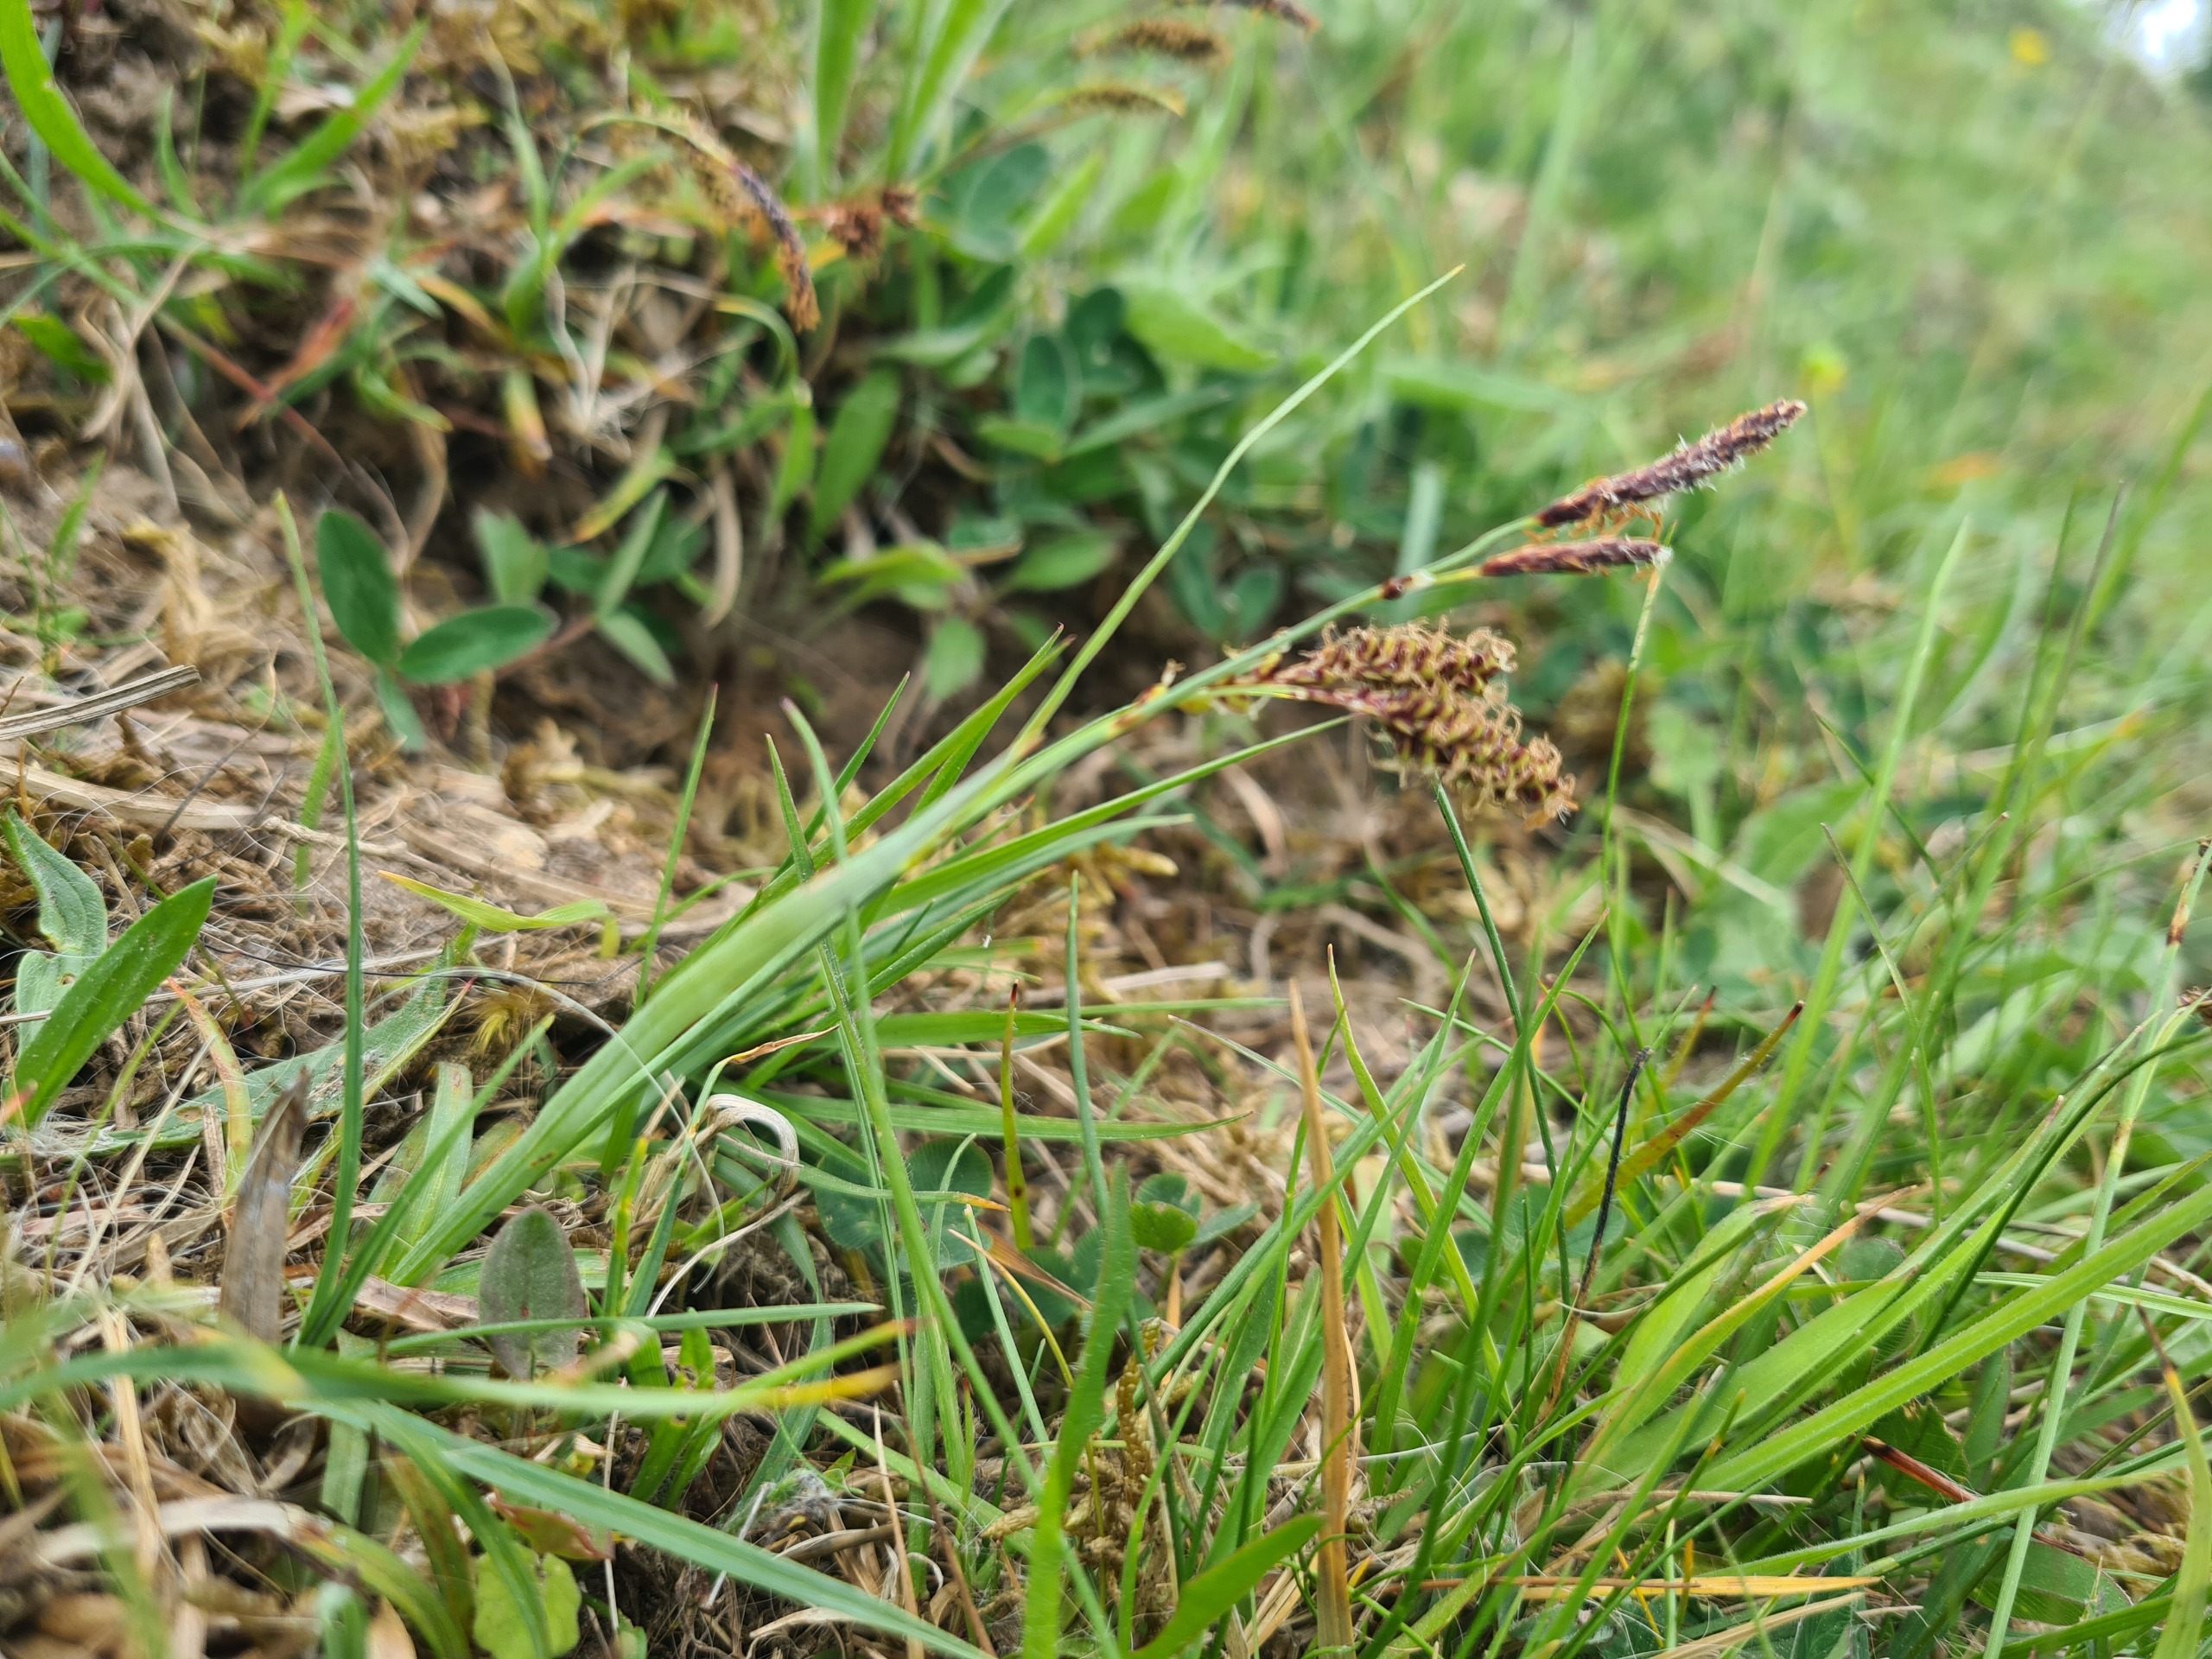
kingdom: Plantae
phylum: Tracheophyta
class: Liliopsida
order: Poales
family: Cyperaceae
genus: Carex
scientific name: Carex flacca
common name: Blågrøn star
